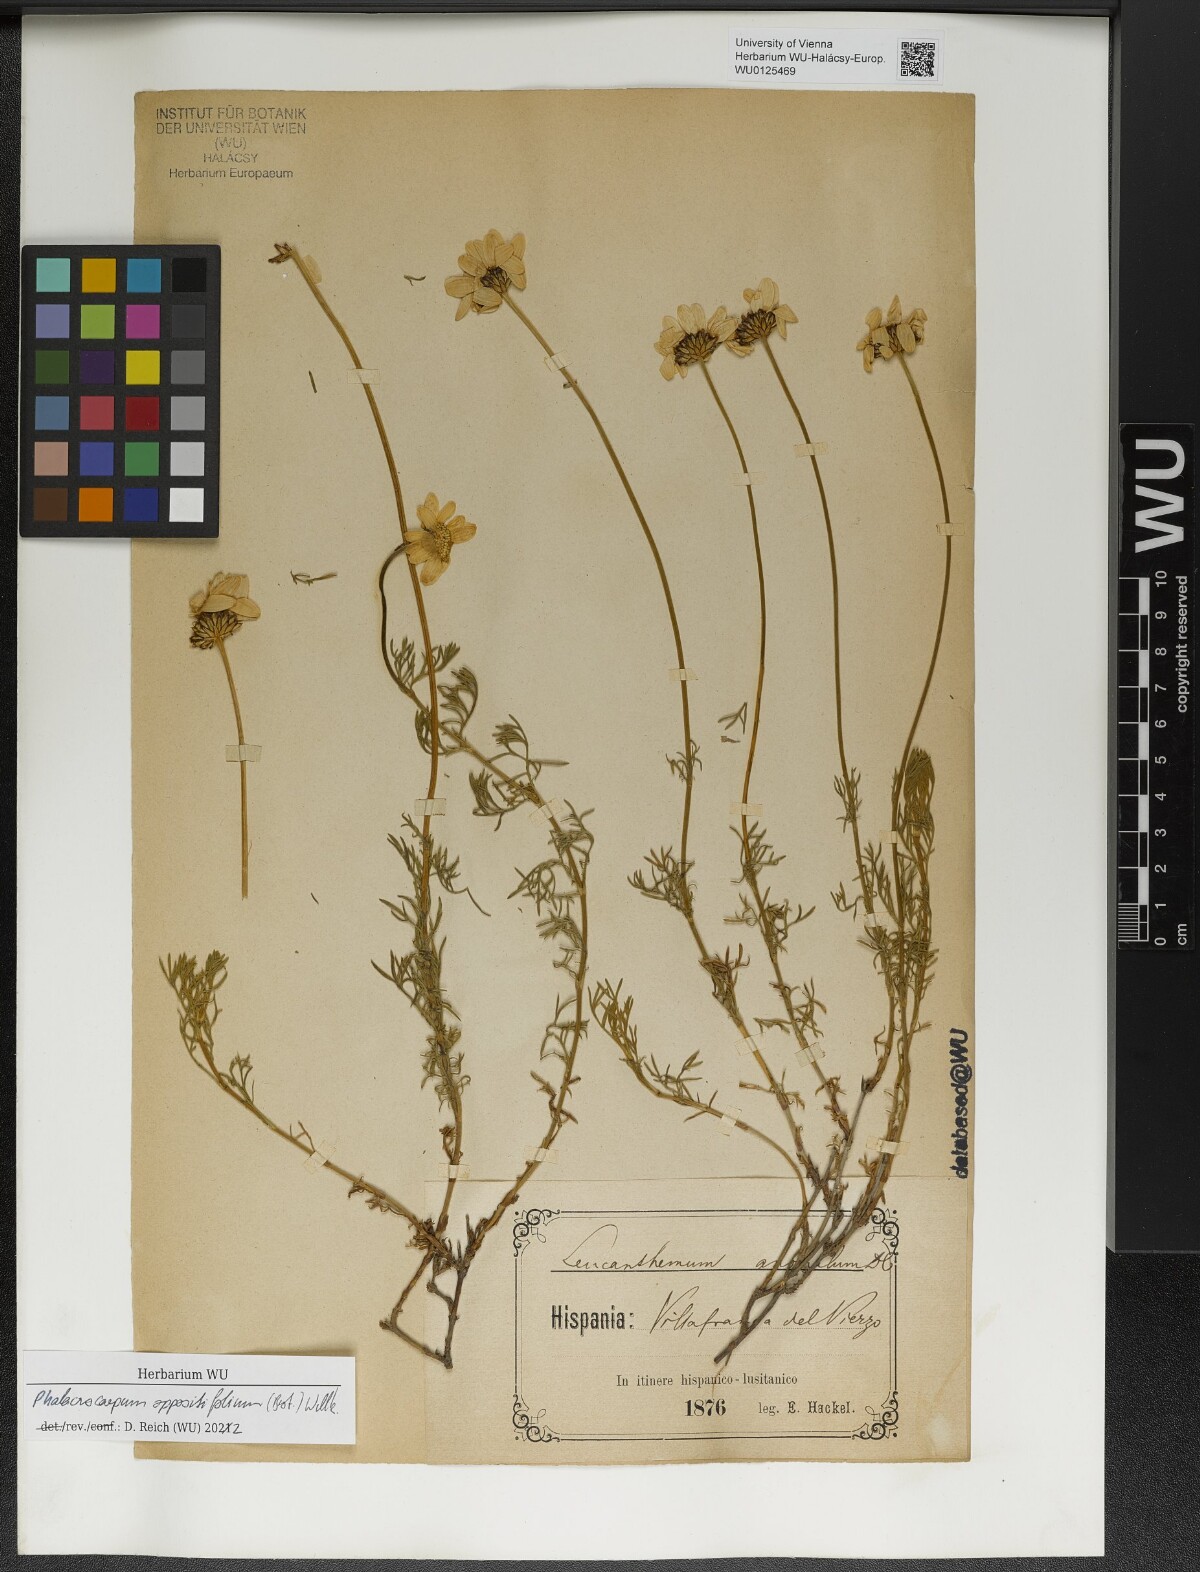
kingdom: Plantae
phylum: Tracheophyta
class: Magnoliopsida
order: Asterales
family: Asteraceae
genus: Phalacrocarpum
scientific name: Phalacrocarpum oppositifolium
